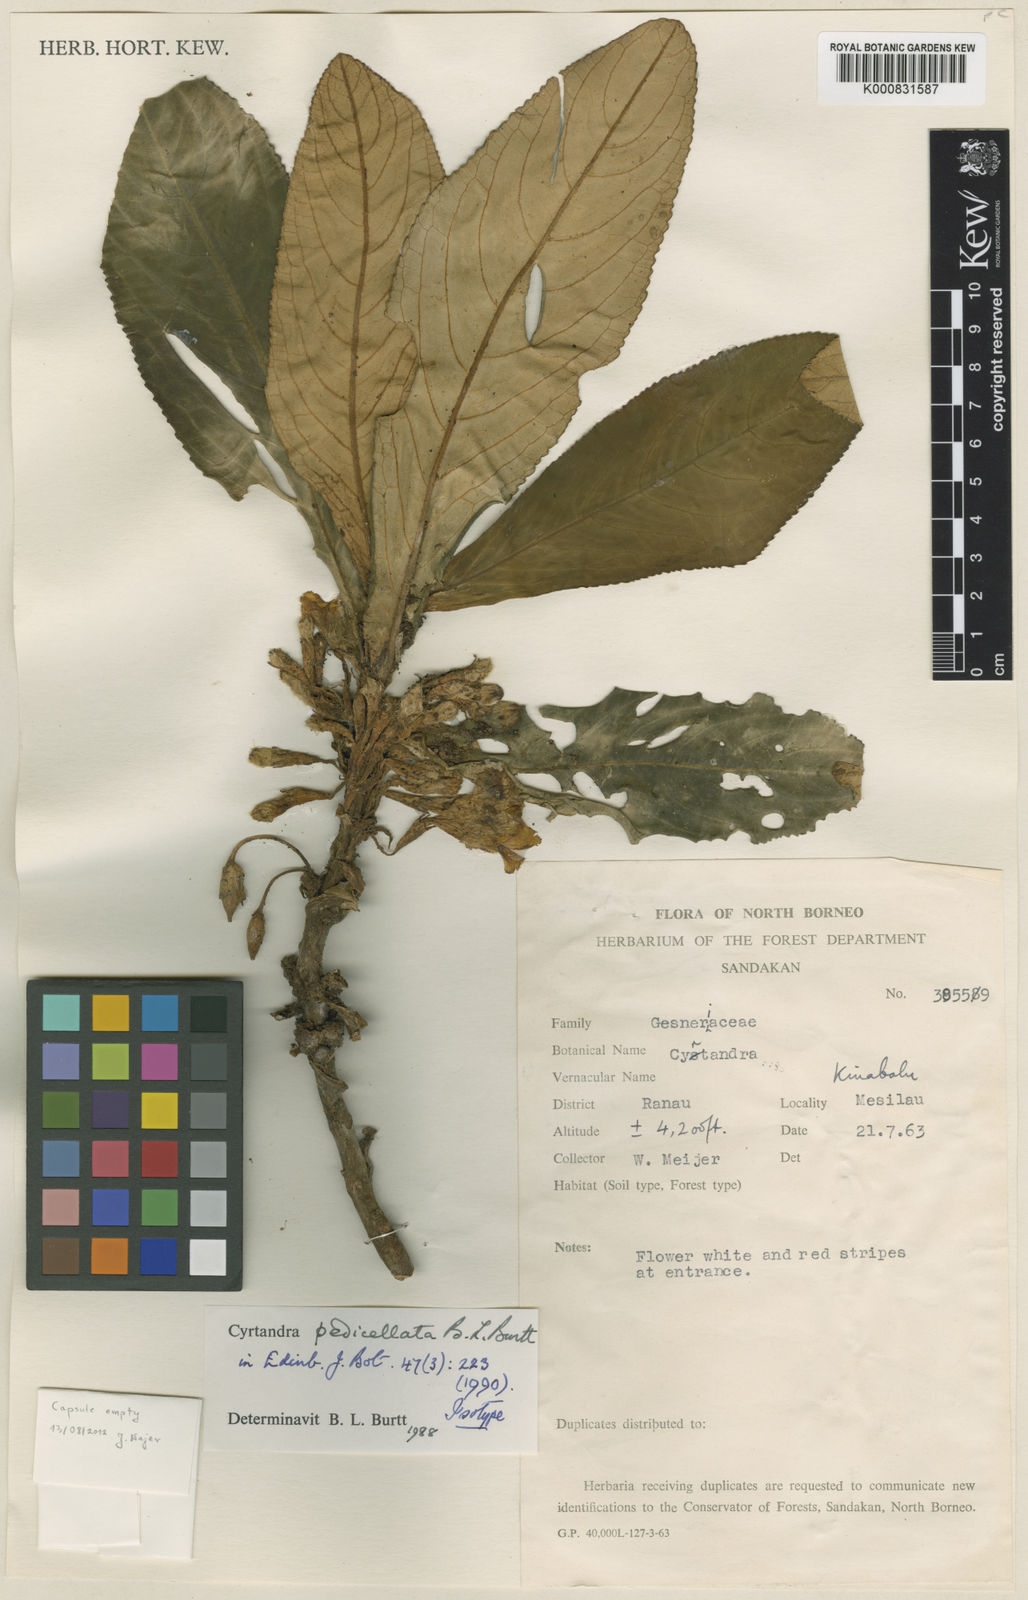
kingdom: Plantae
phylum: Tracheophyta
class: Magnoliopsida
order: Lamiales
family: Gesneriaceae
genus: Cyrtandra
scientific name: Cyrtandra pedicellata
